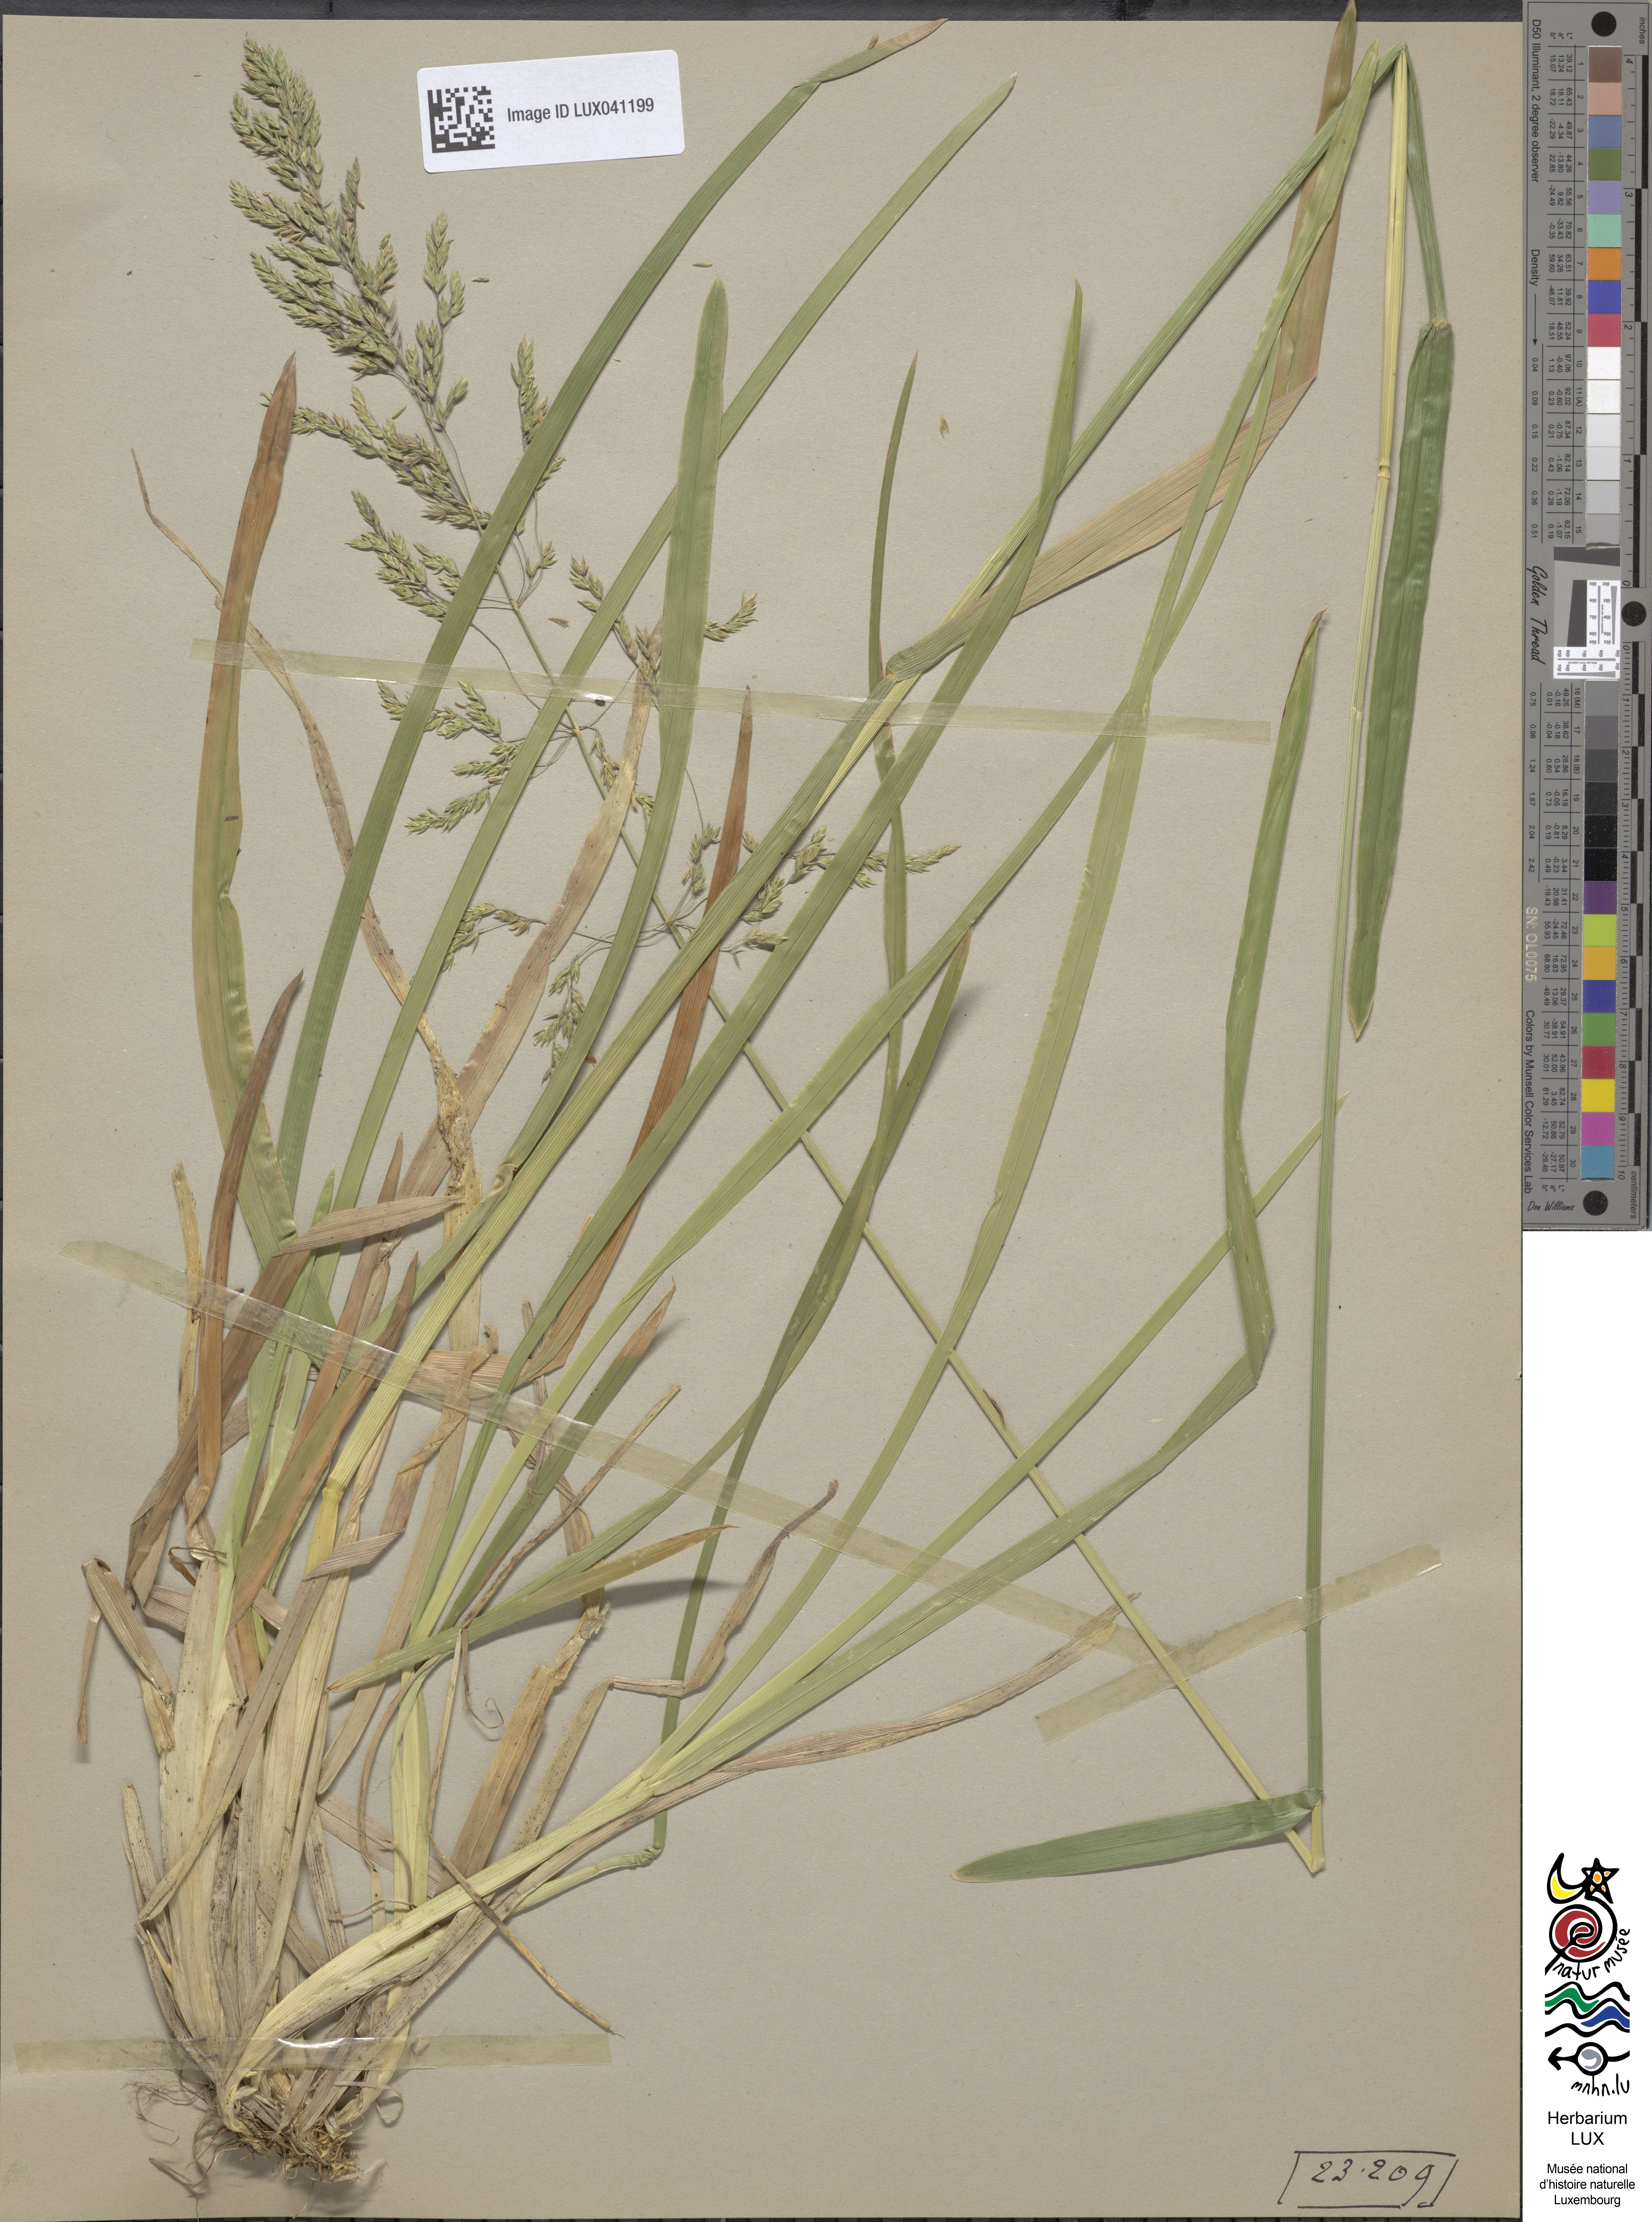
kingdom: Plantae
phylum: Tracheophyta
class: Liliopsida
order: Poales
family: Poaceae
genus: Poa
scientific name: Poa chaixii
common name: Broad-leaved meadow-grass
